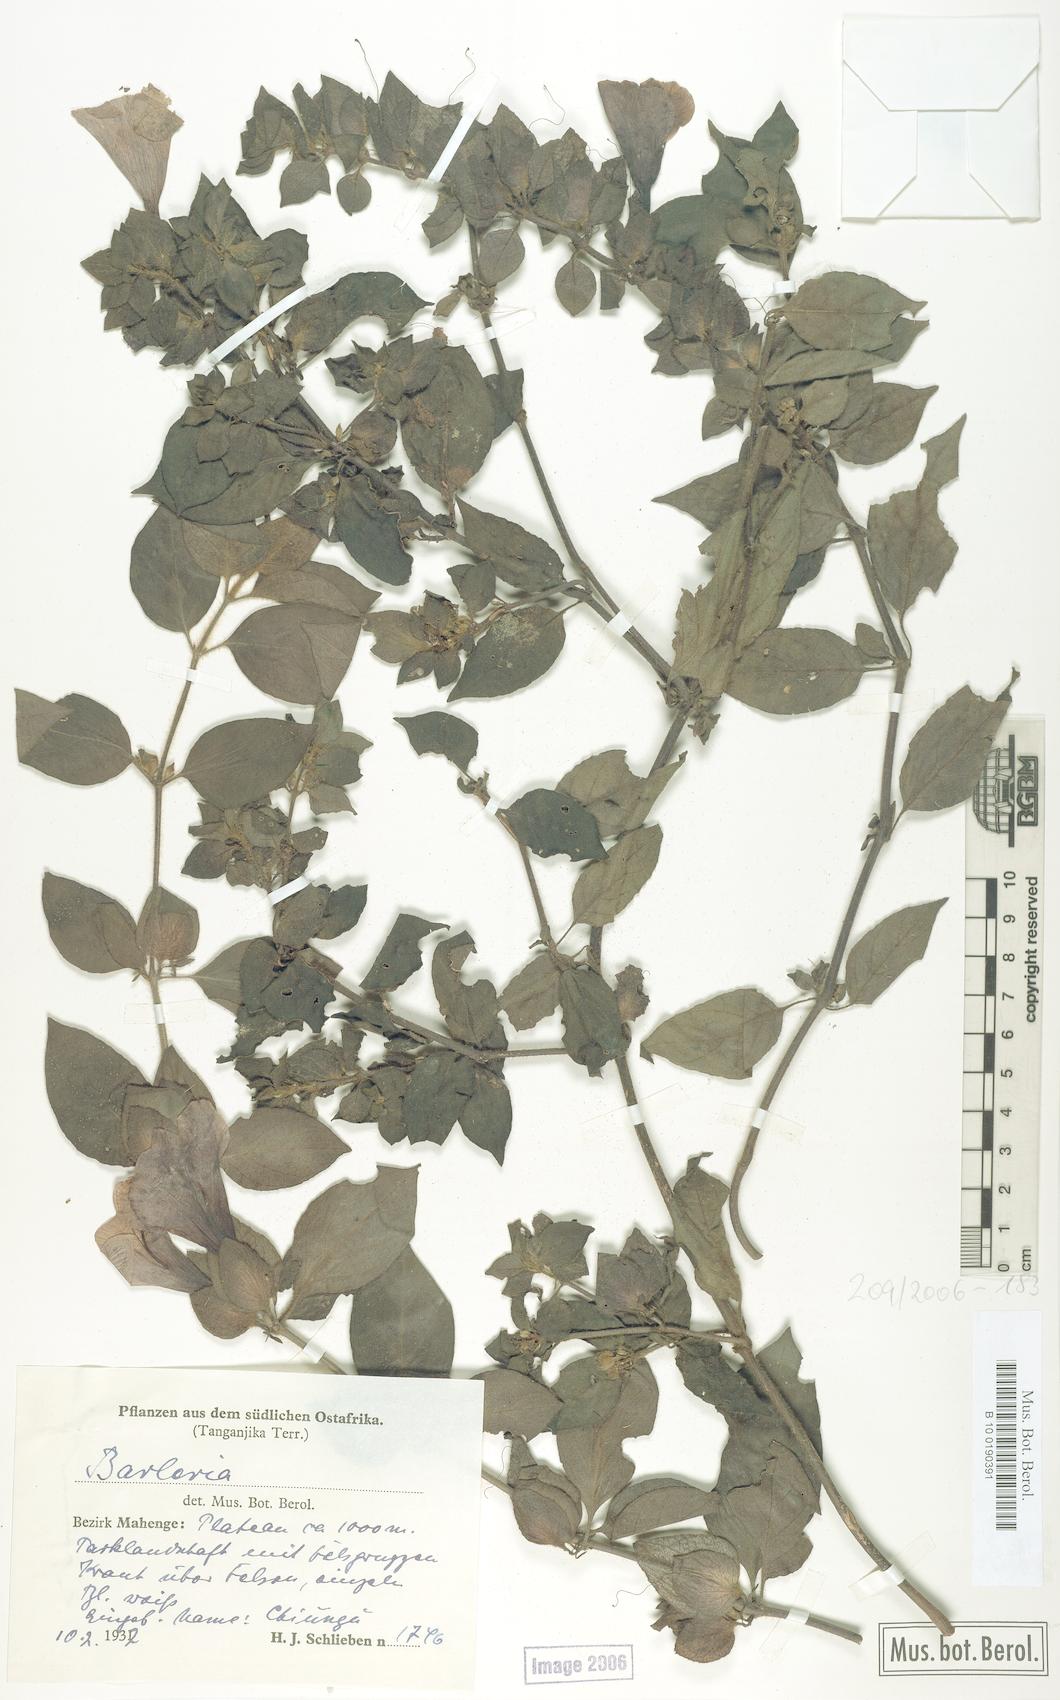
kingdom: Plantae
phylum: Tracheophyta
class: Magnoliopsida
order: Lamiales
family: Acanthaceae
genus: Barleria
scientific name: Barleria amanensis
